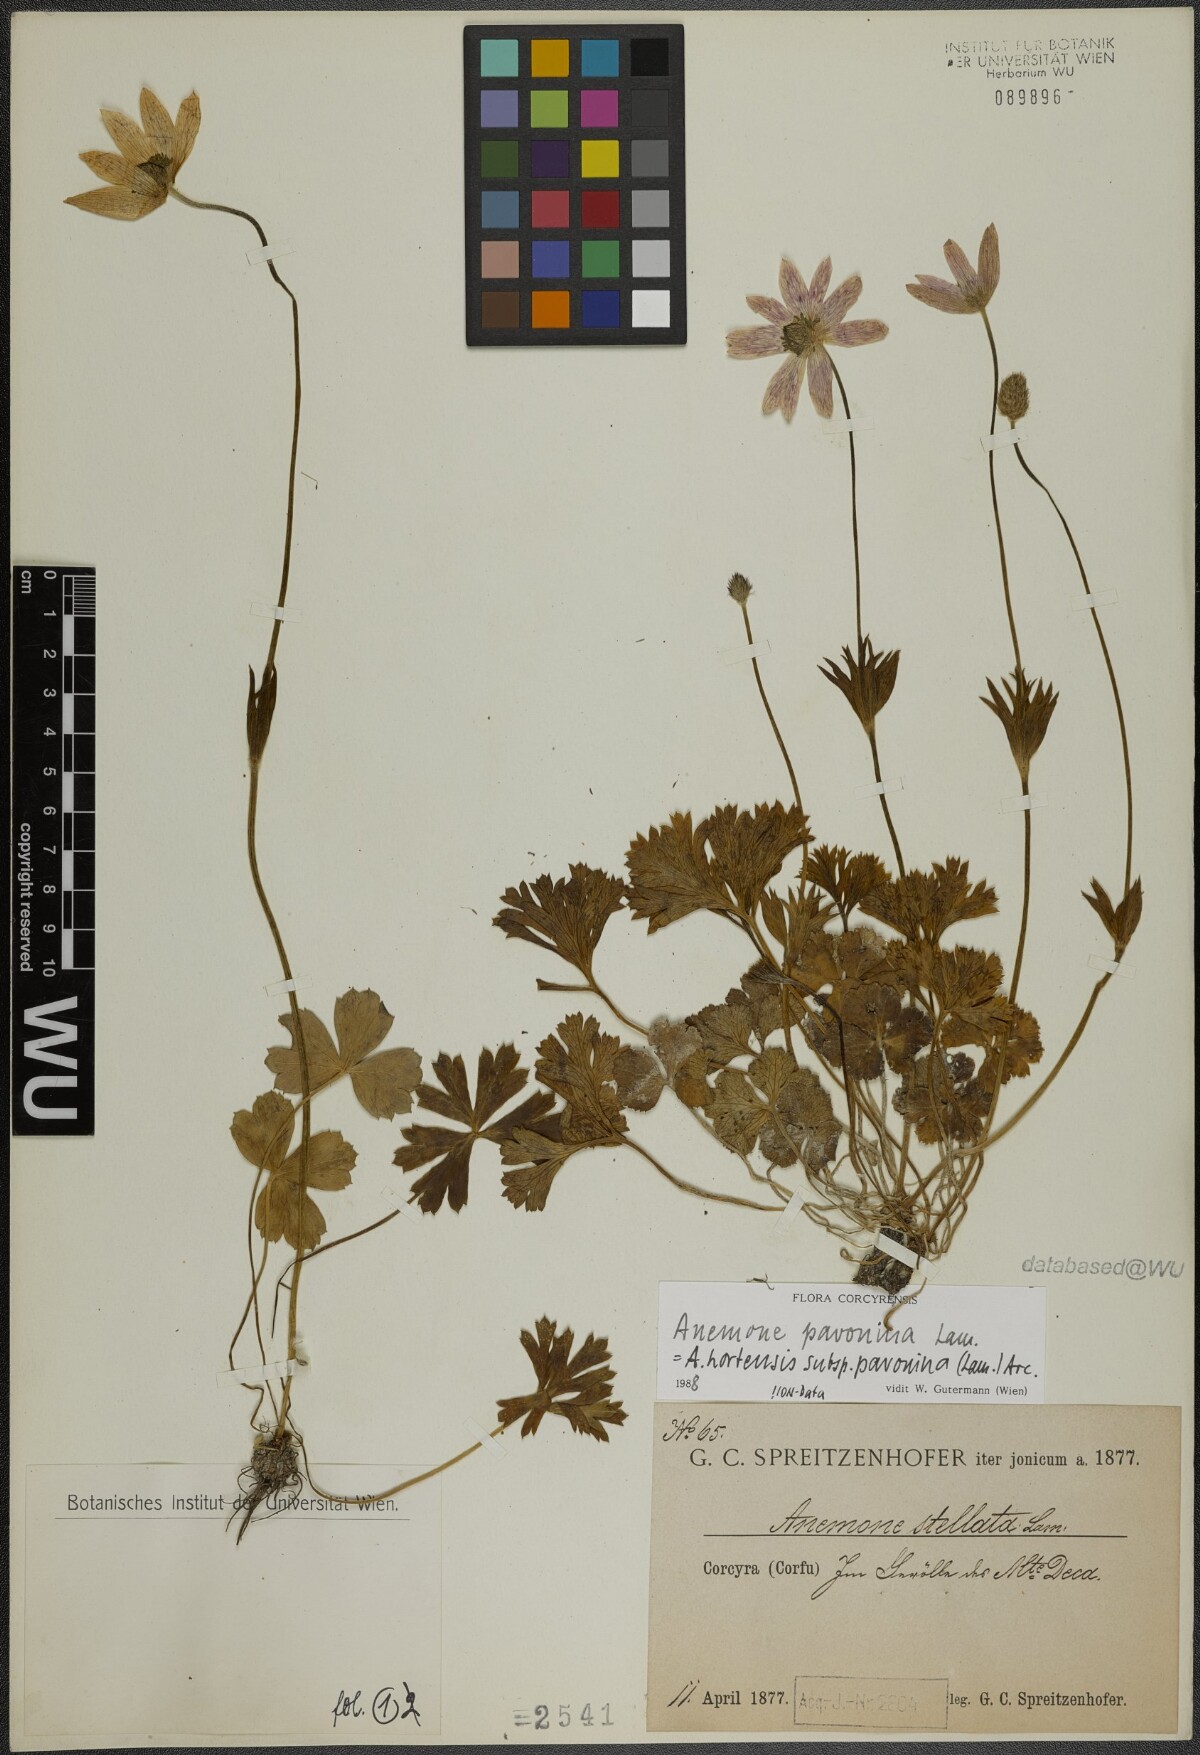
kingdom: Plantae
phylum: Tracheophyta
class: Magnoliopsida
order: Ranunculales
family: Ranunculaceae
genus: Anemone
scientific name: Anemone pavonina
